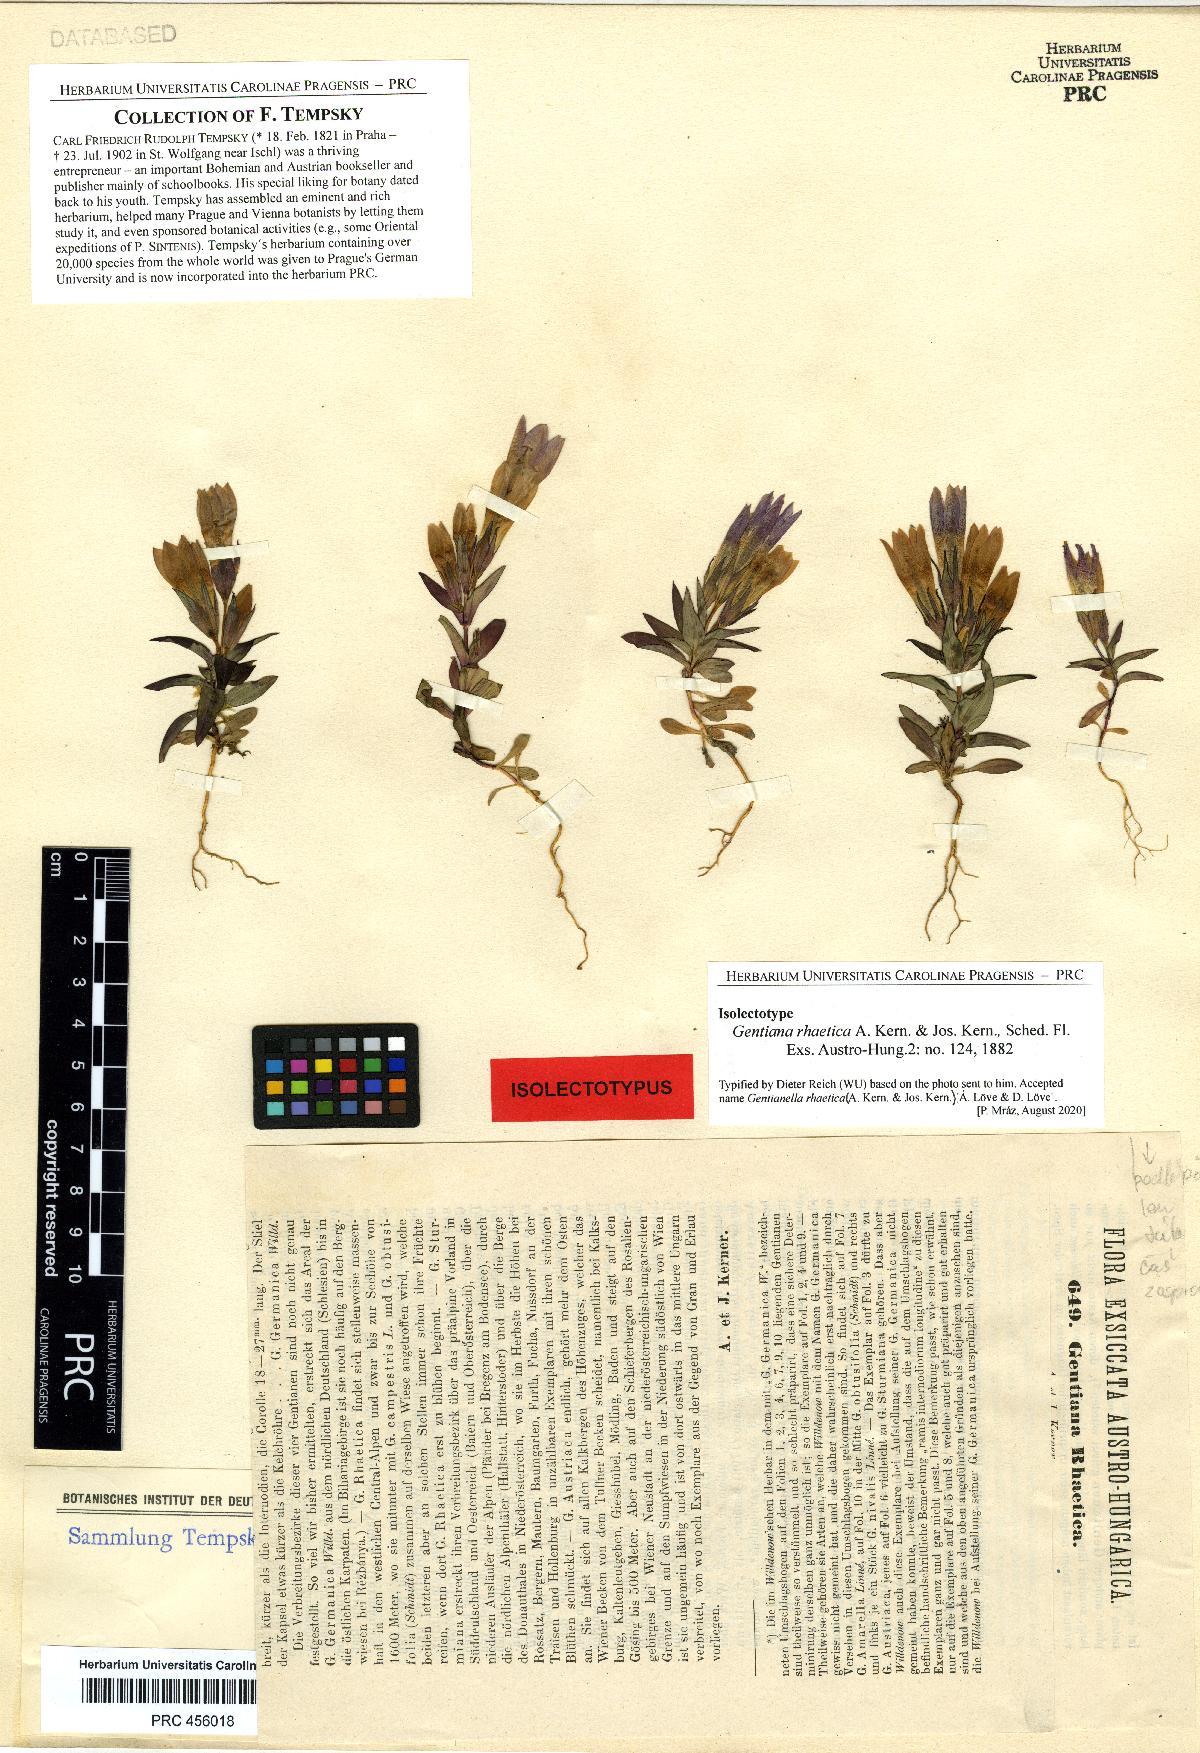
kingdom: Plantae
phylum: Tracheophyta
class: Magnoliopsida
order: Gentianales
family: Gentianaceae
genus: Gentianella
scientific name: Gentianella rhaetica
